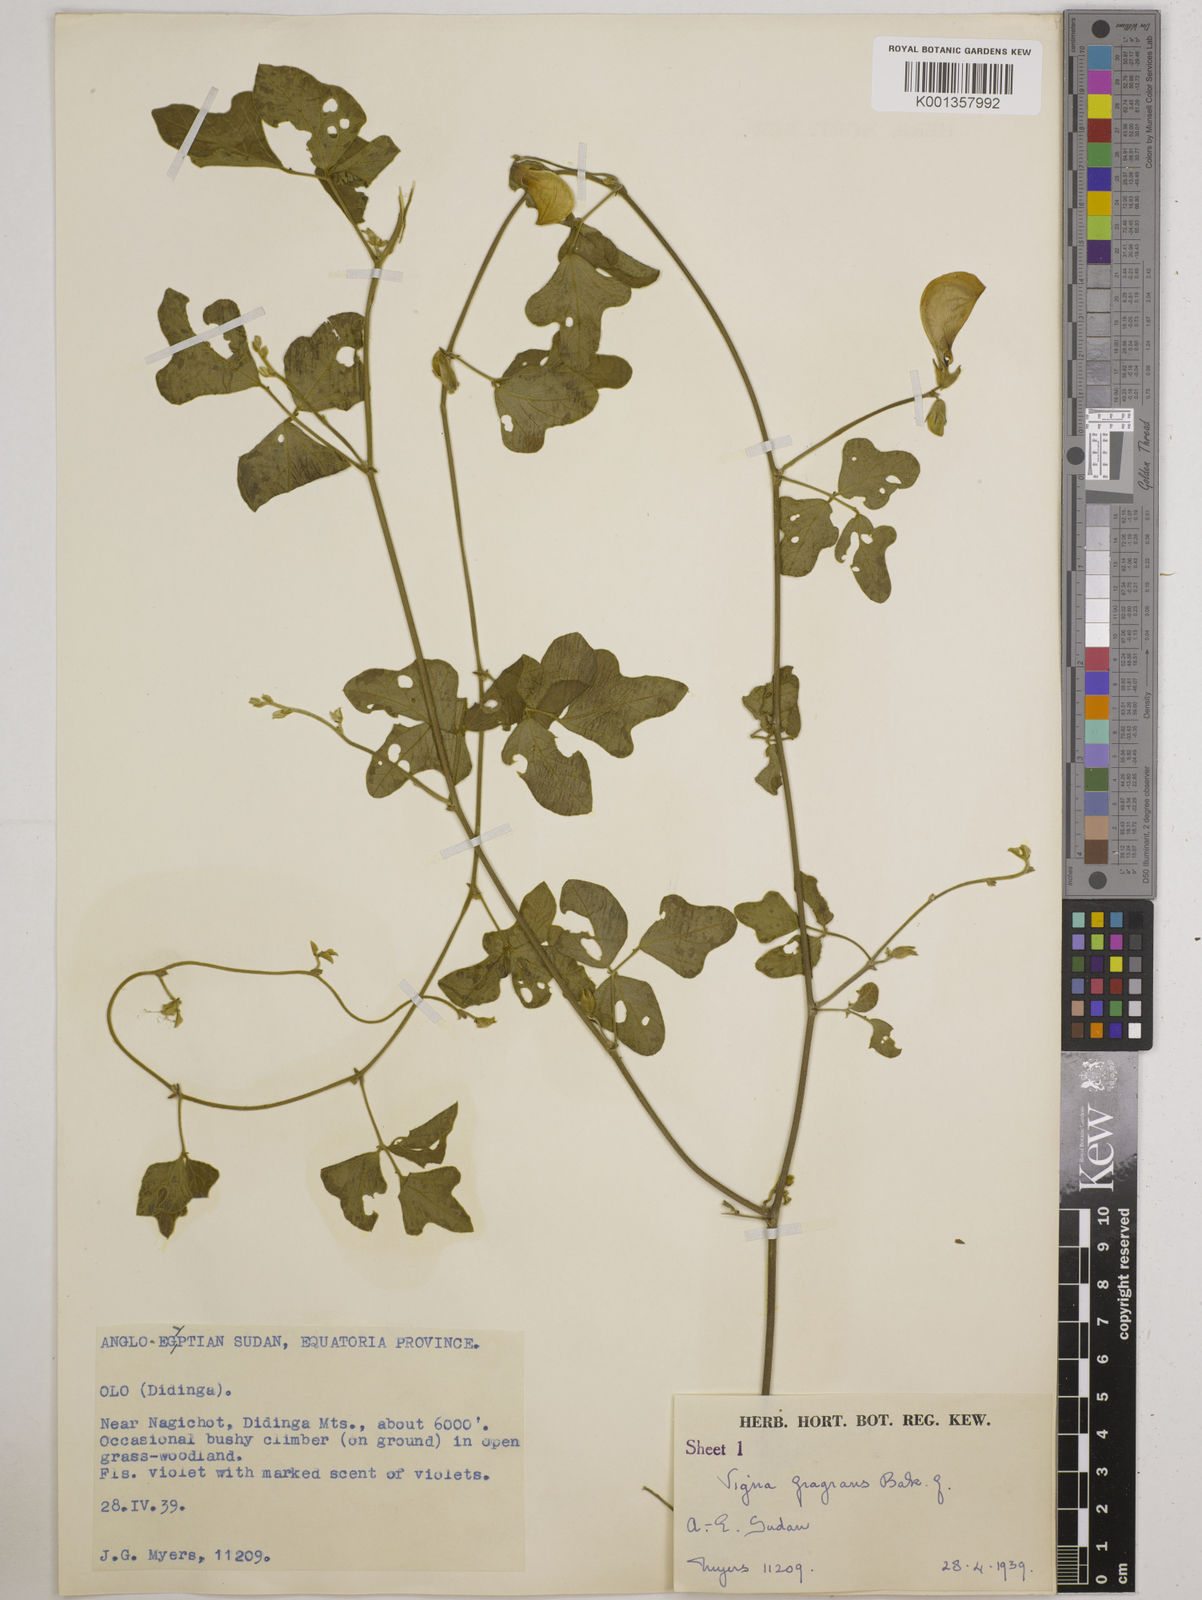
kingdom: Plantae
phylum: Tracheophyta
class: Magnoliopsida
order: Fabales
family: Fabaceae
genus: Vigna
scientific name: Vigna frutescens
